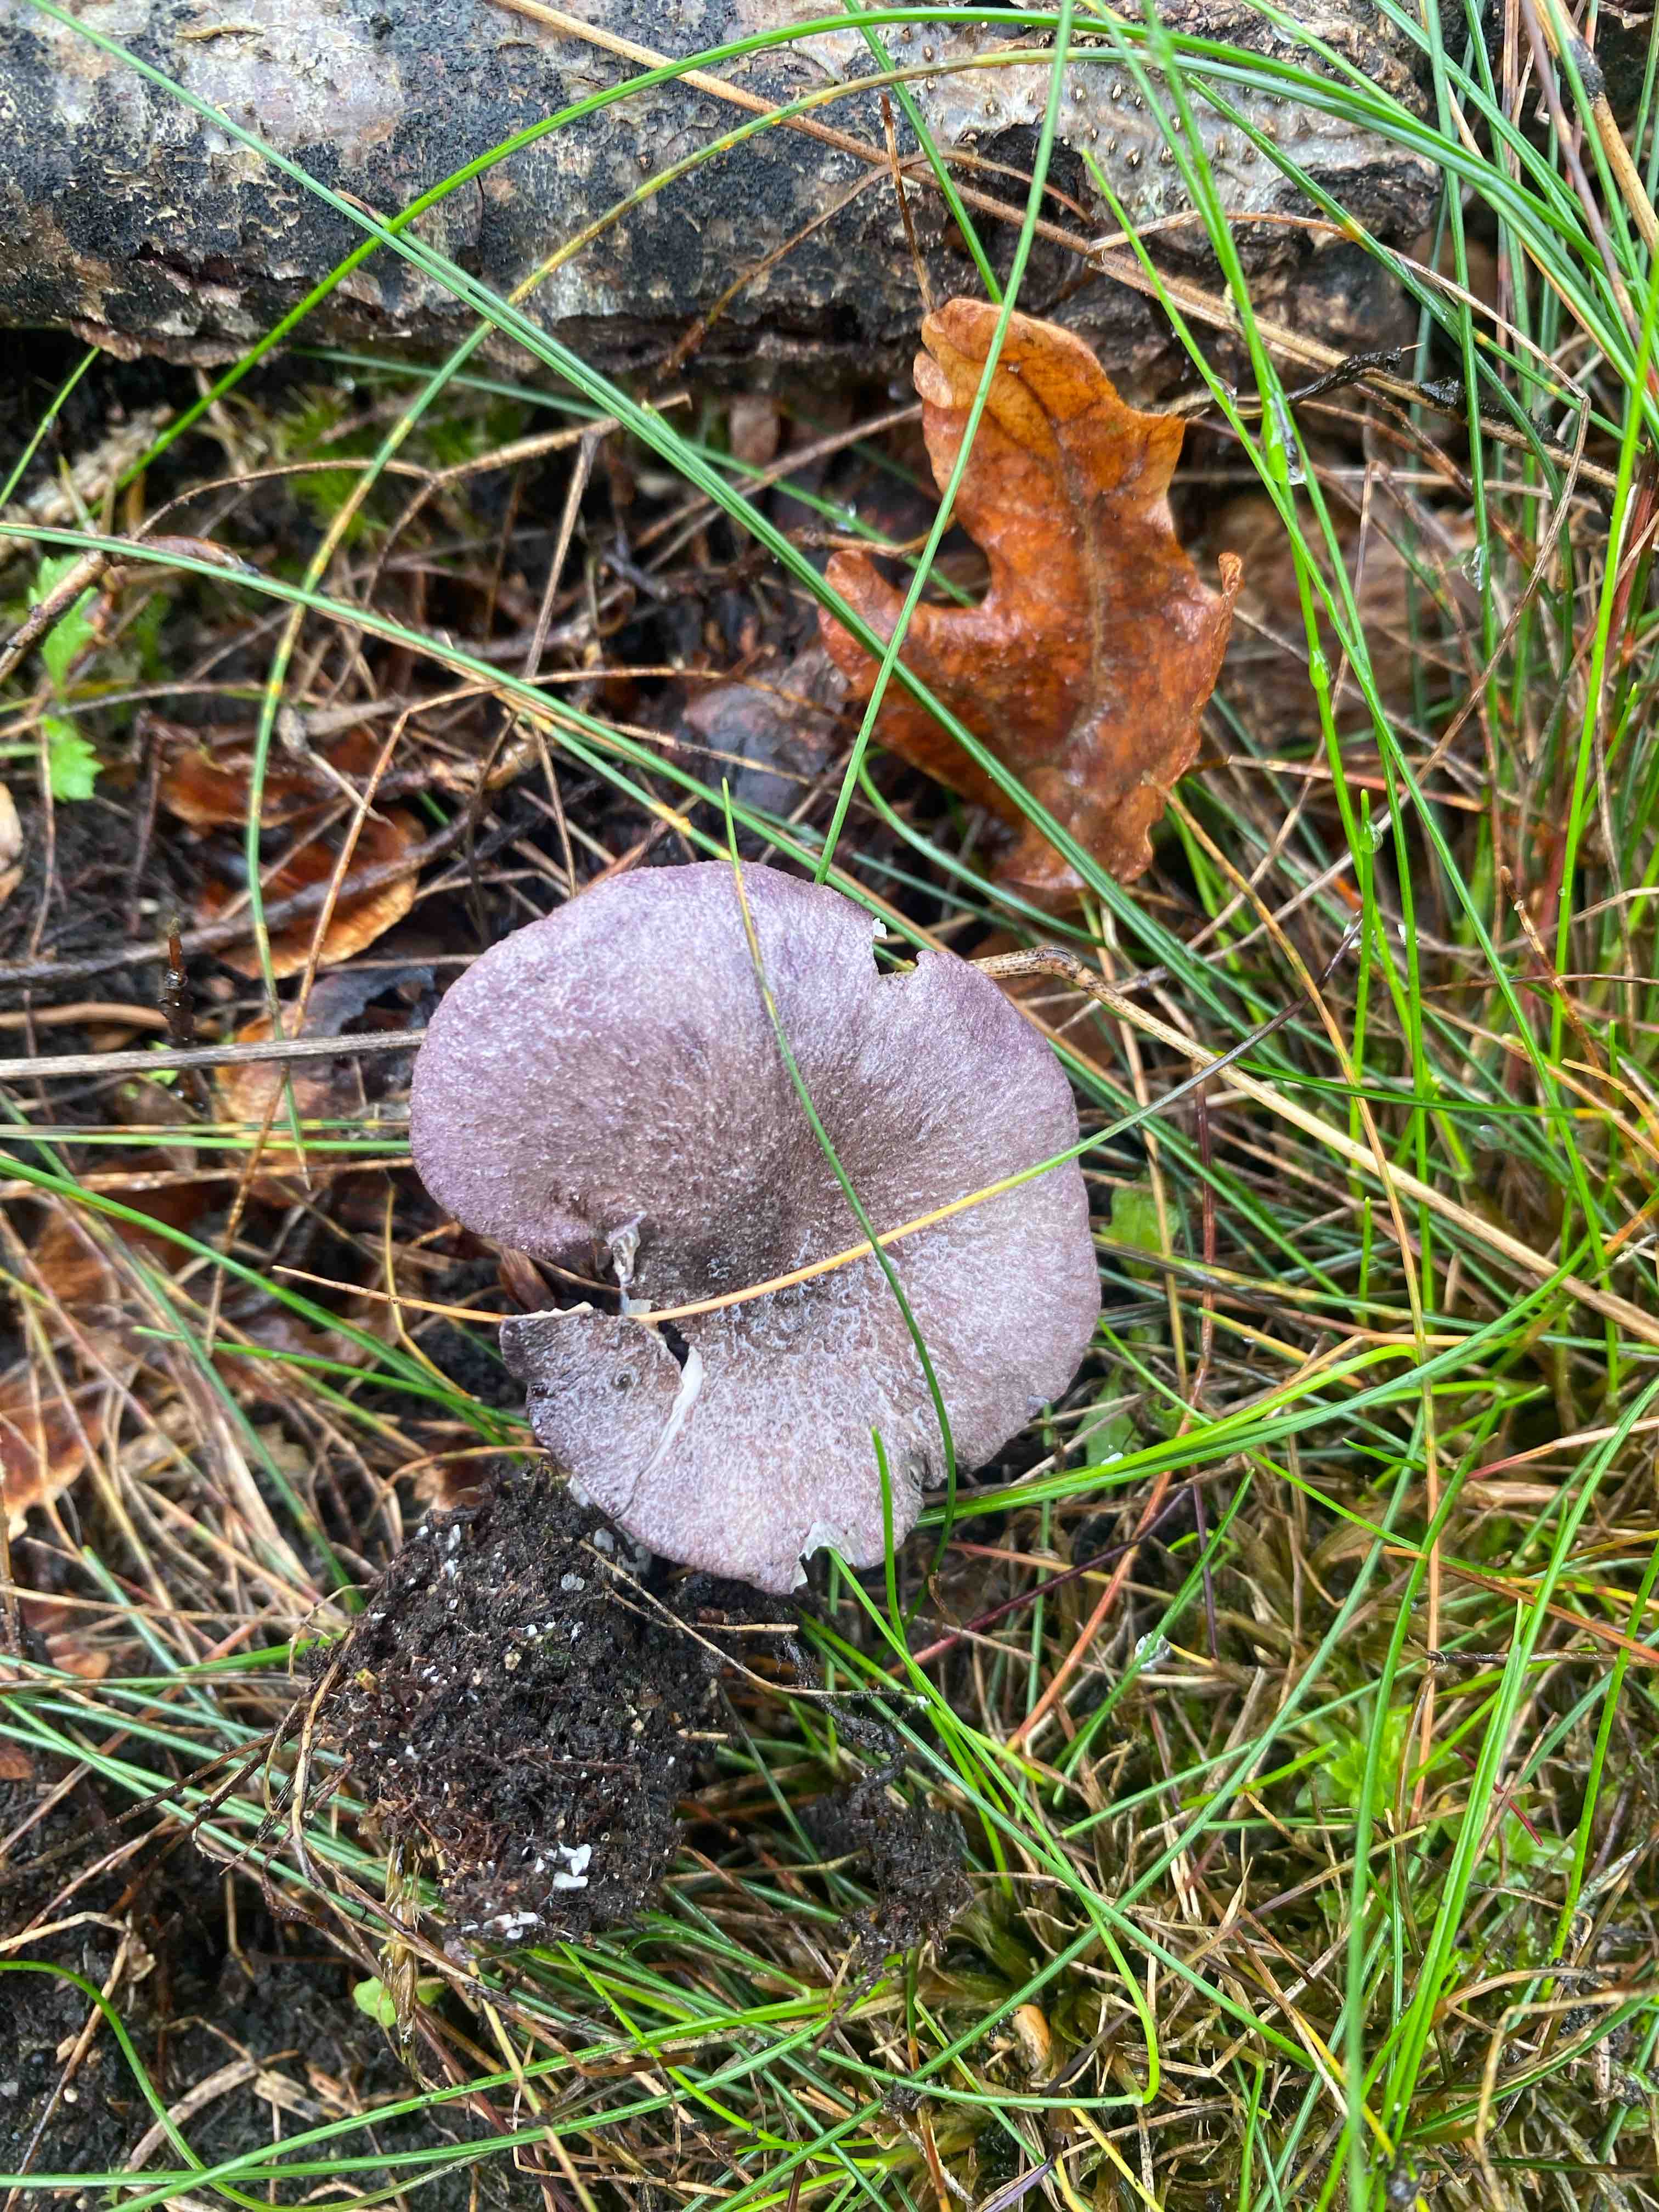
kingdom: Fungi
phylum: Basidiomycota
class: Agaricomycetes
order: Agaricales
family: Entolomataceae
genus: Entoloma
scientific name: Entoloma
